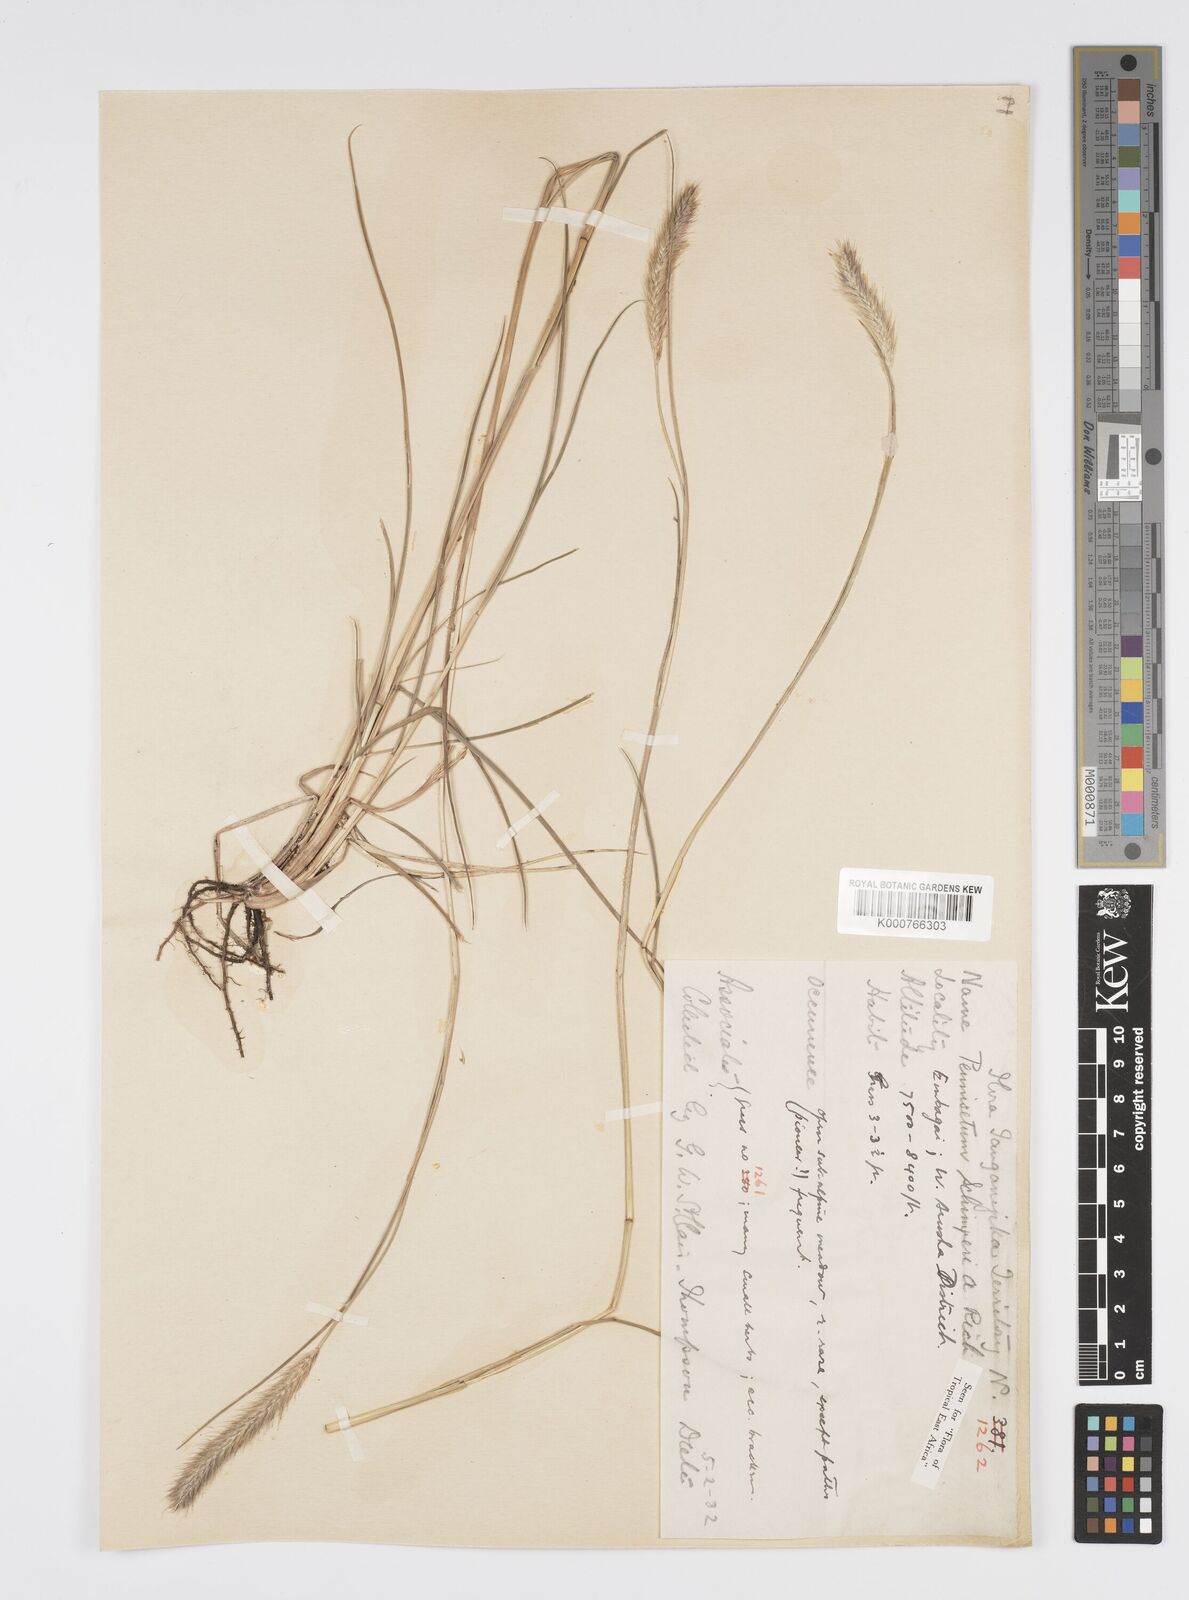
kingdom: Plantae
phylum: Tracheophyta
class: Liliopsida
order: Poales
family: Poaceae
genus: Cenchrus
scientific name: Cenchrus sphacelatus
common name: Bulgras
